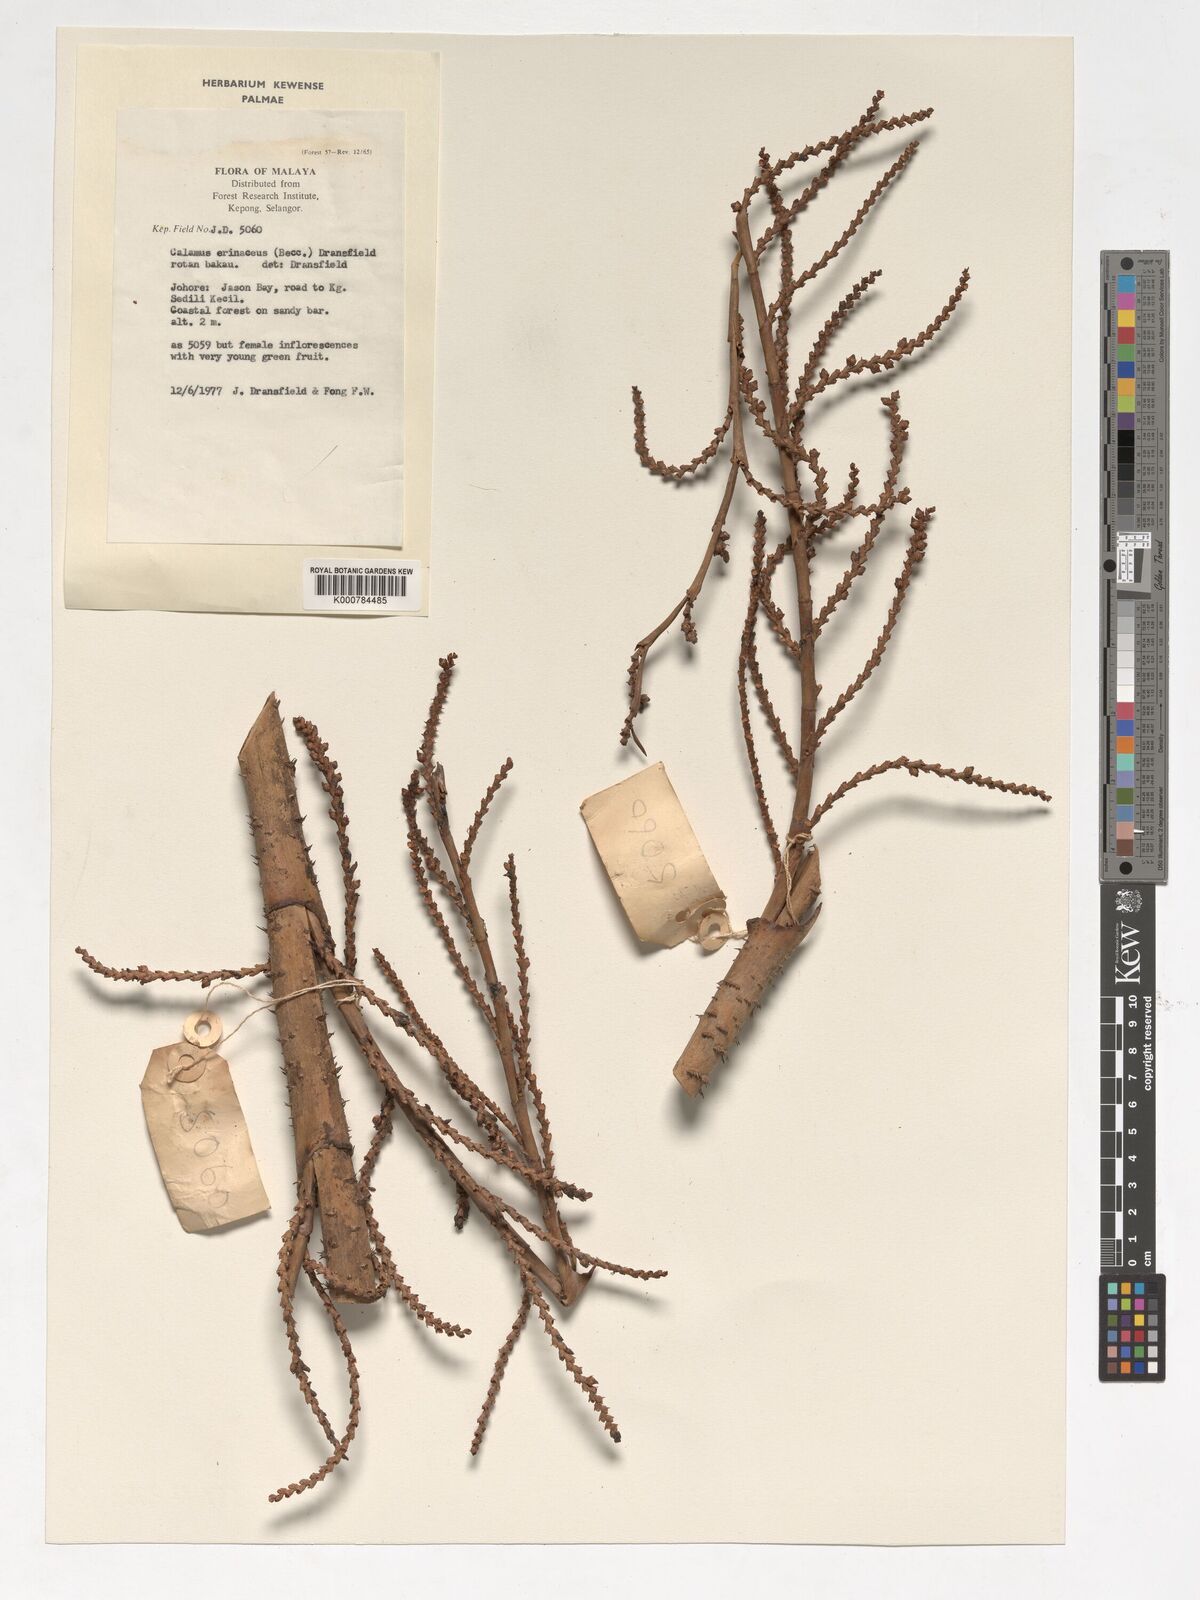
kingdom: Plantae
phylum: Tracheophyta
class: Liliopsida
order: Arecales
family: Arecaceae
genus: Calamus
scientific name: Calamus erinaceus
